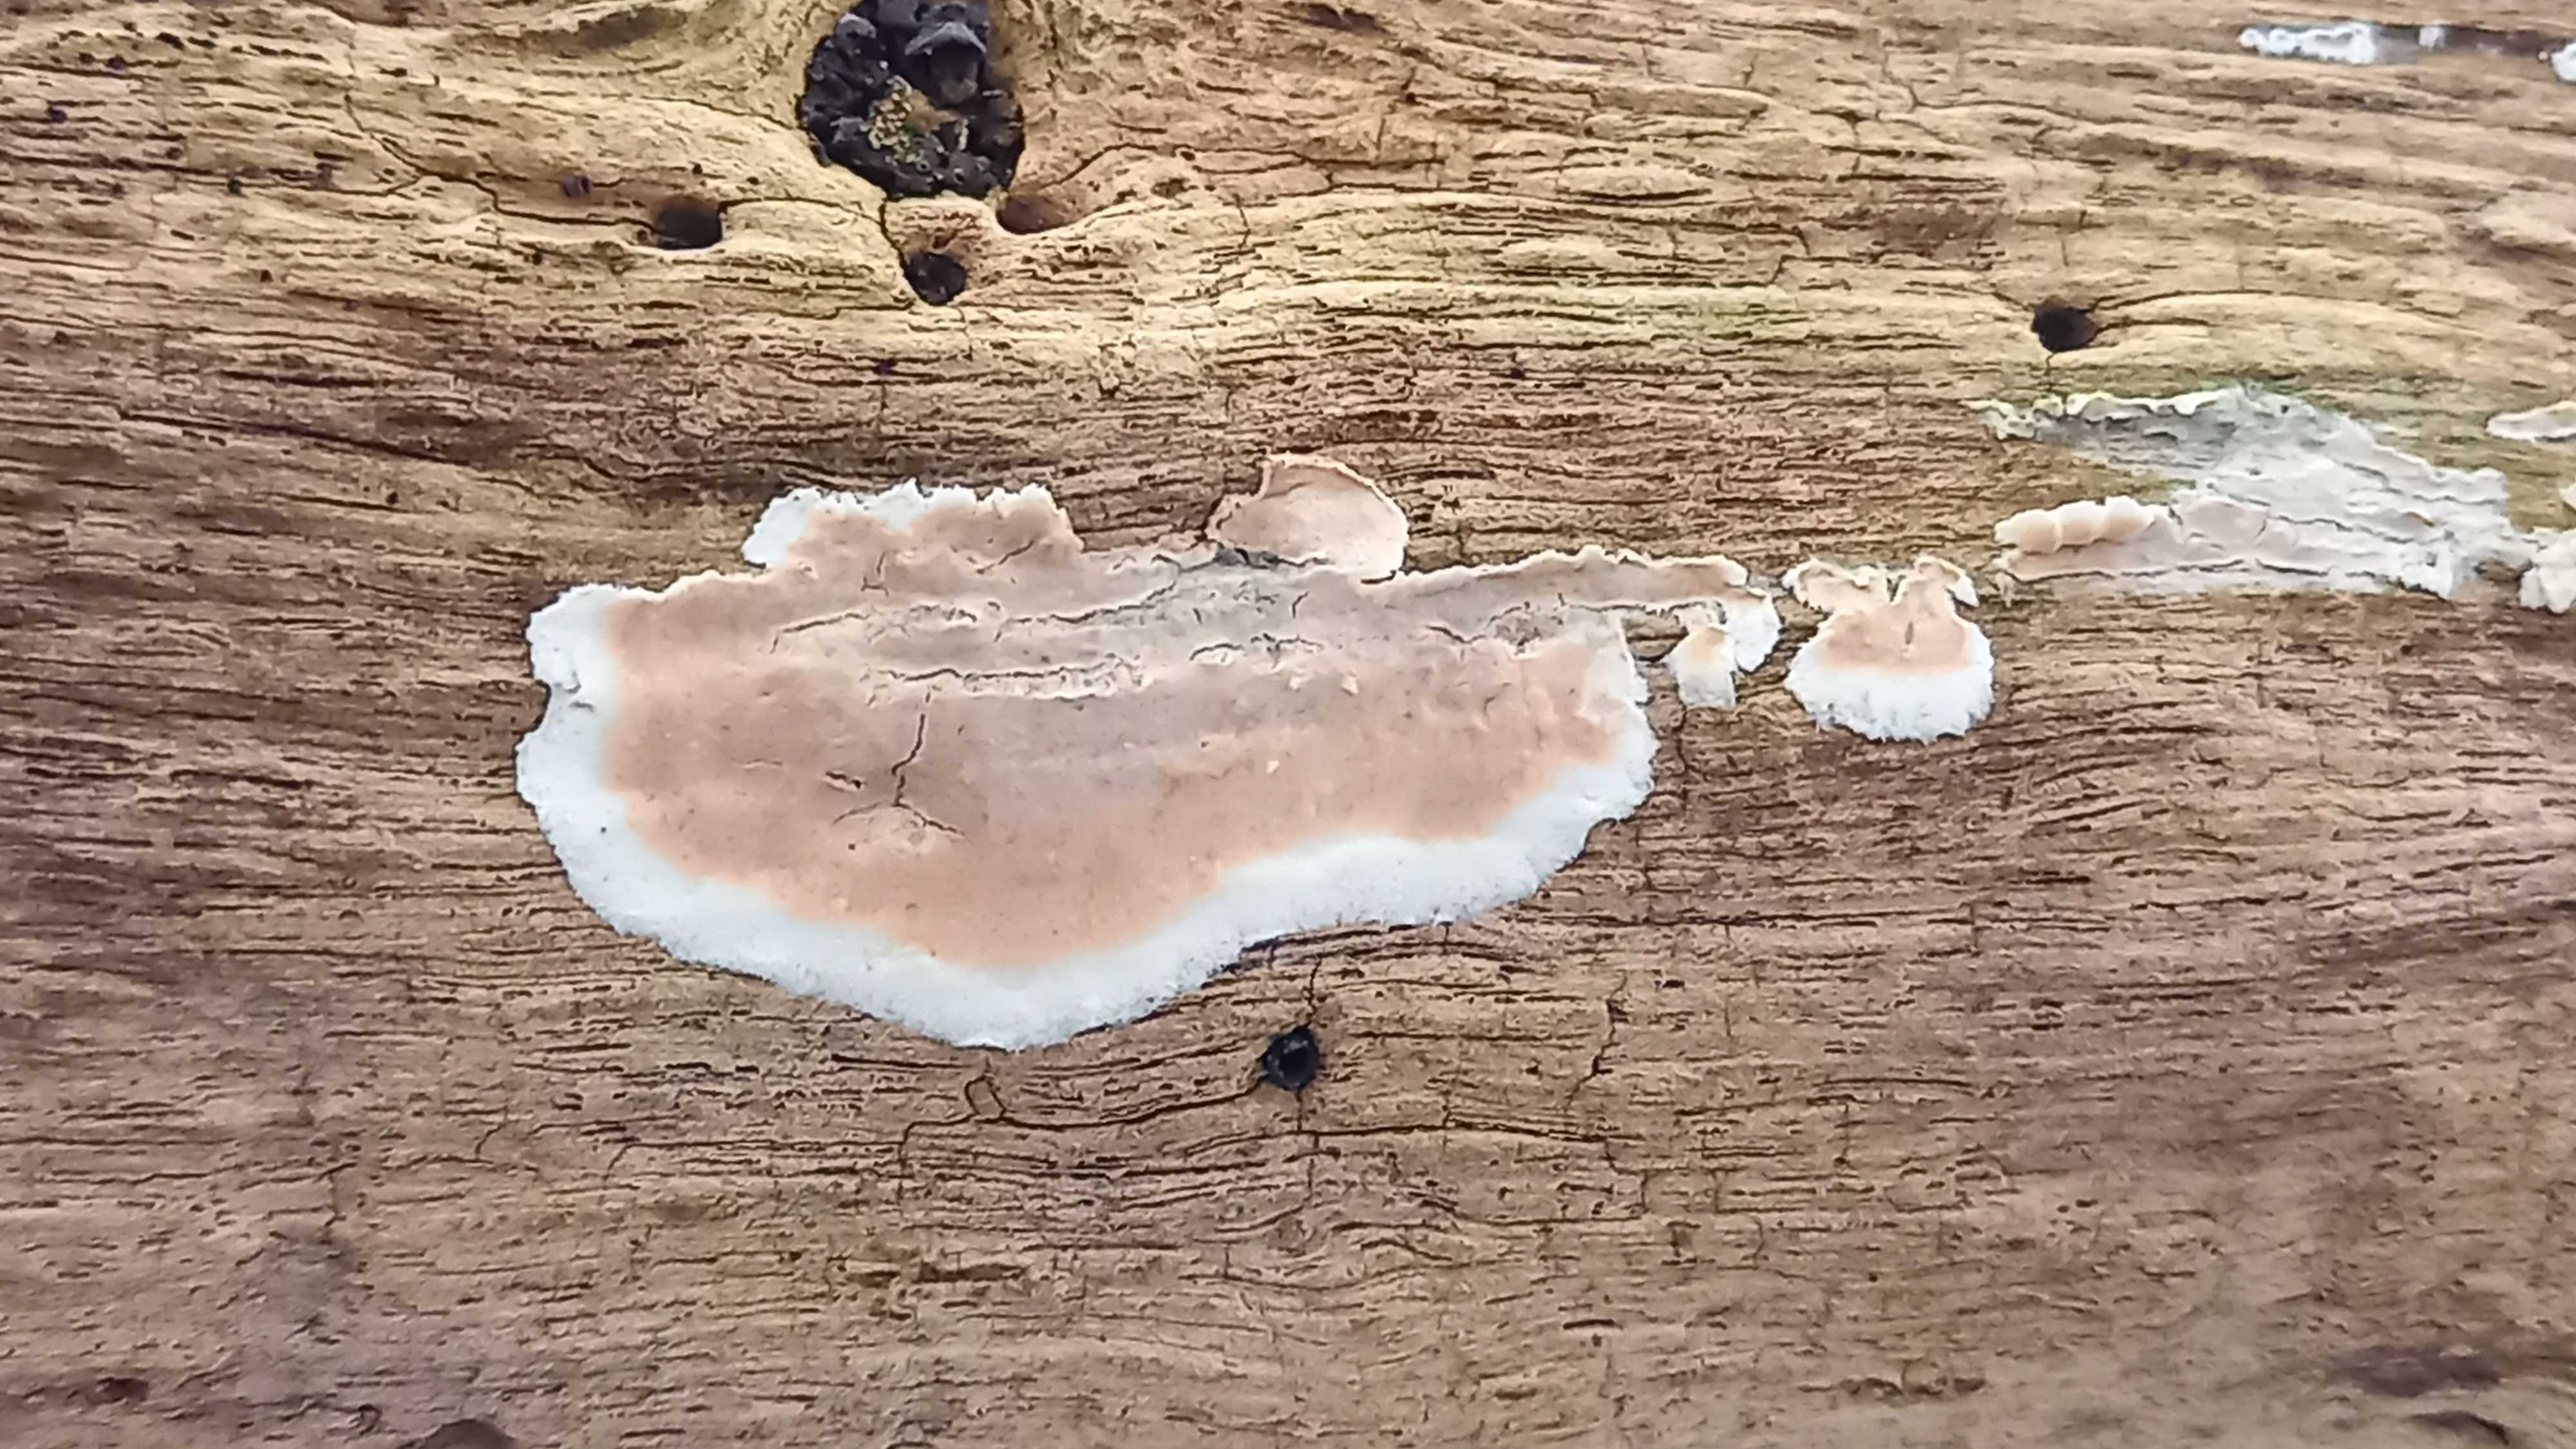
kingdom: Fungi
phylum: Basidiomycota
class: Agaricomycetes
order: Agaricales
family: Physalacriaceae
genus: Cylindrobasidium
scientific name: Cylindrobasidium evolvens
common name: sprækkehinde
